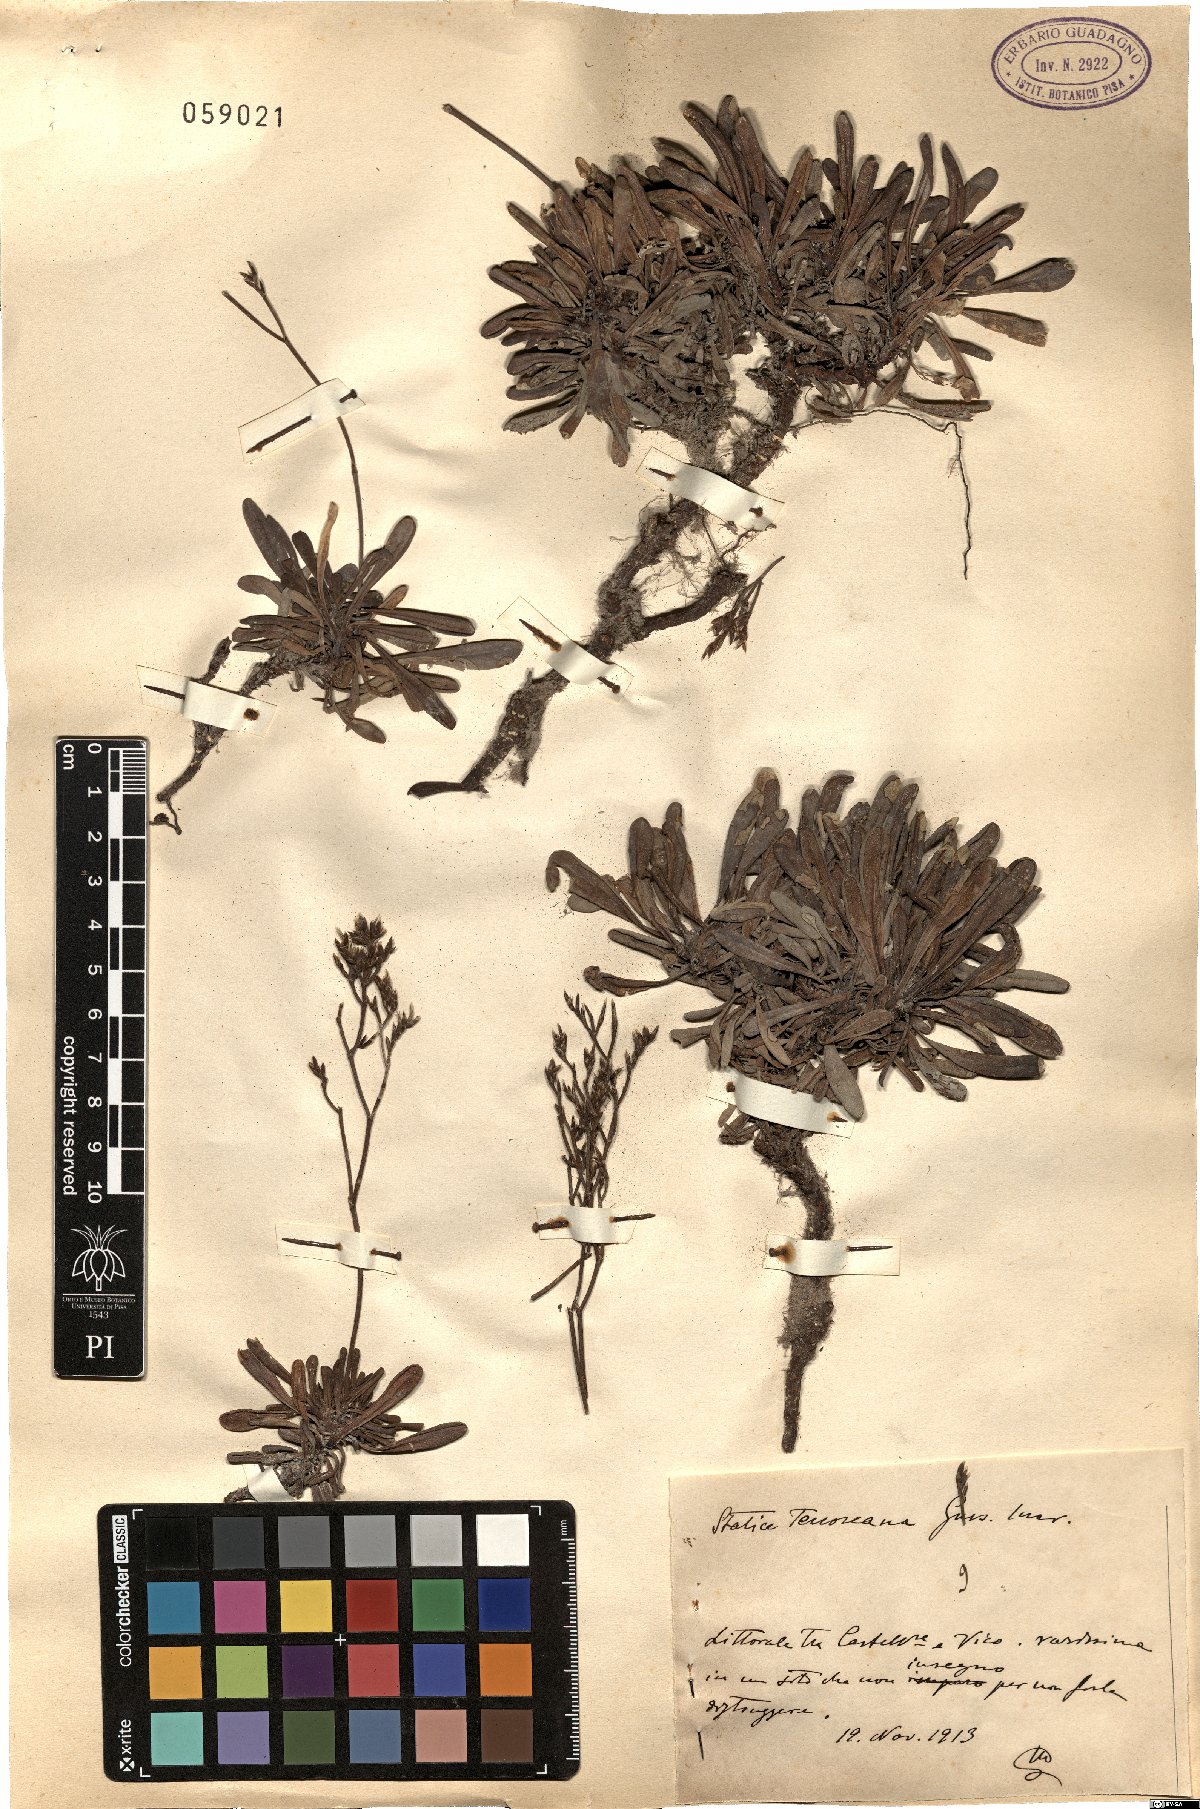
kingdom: Plantae
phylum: Tracheophyta
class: Magnoliopsida
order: Caryophyllales
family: Plumbaginaceae
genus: Limonium
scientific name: Limonium tenoreanum
